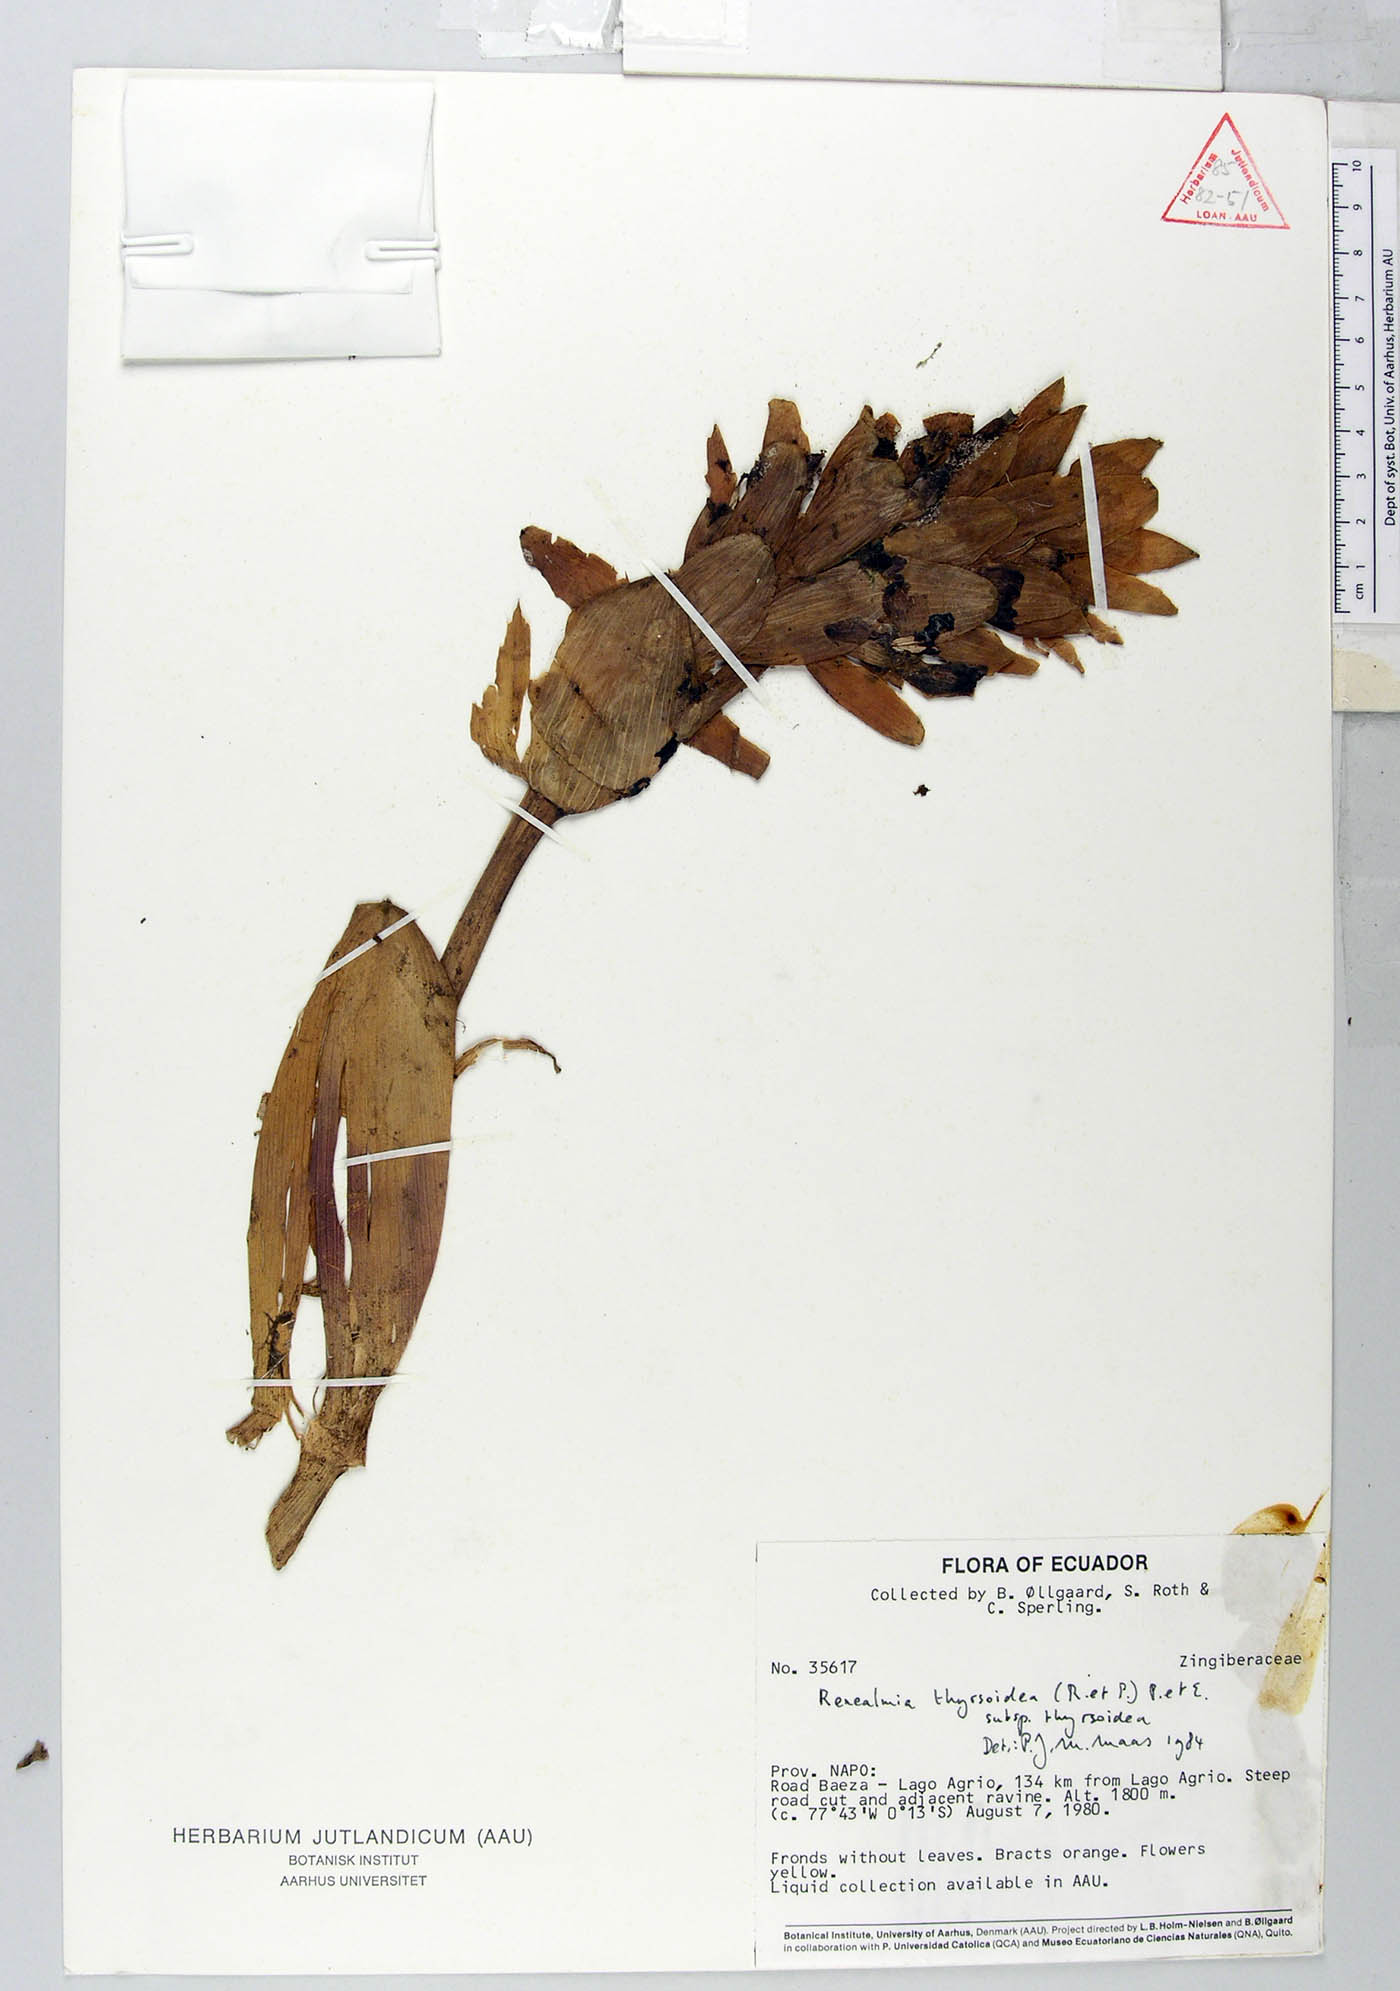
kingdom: Plantae
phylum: Tracheophyta
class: Liliopsida
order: Zingiberales
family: Zingiberaceae
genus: Renealmia
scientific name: Renealmia thyrsoidea
